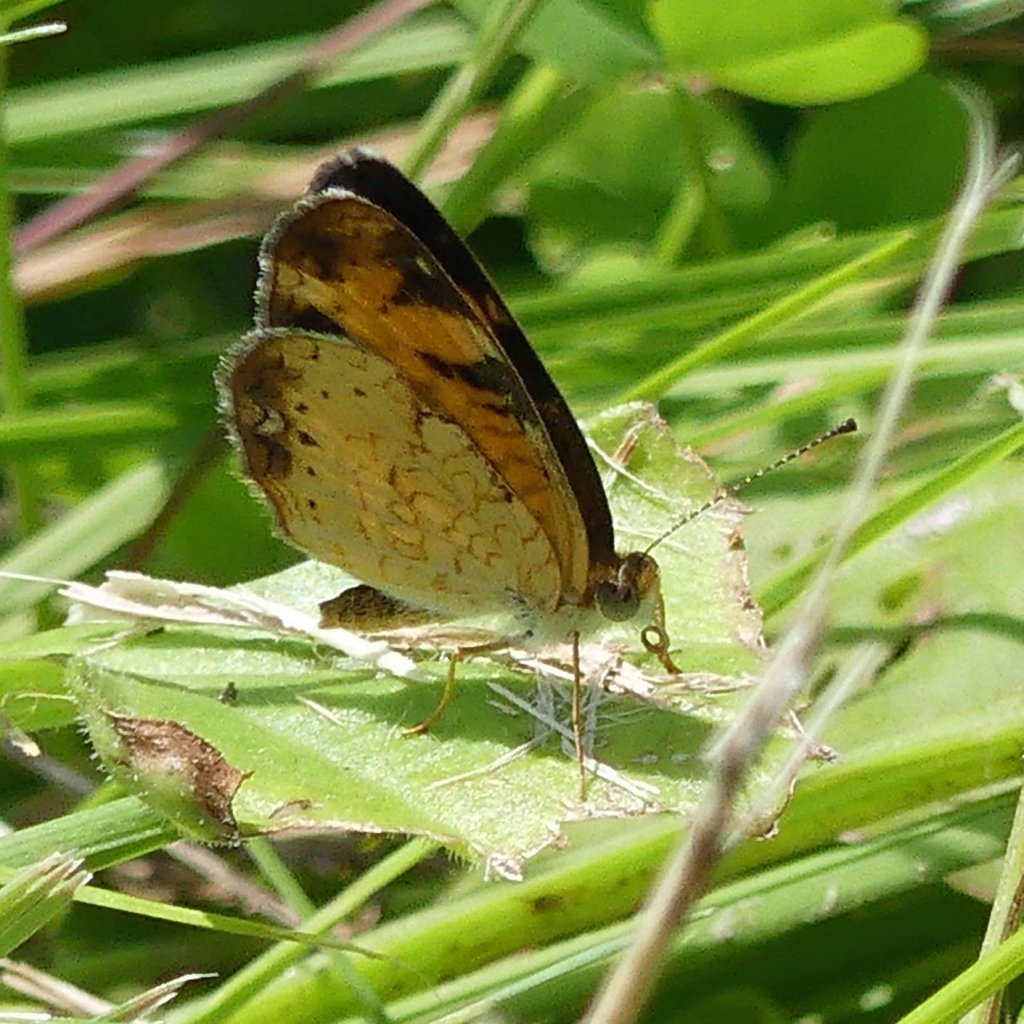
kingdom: Animalia
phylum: Arthropoda
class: Insecta
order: Lepidoptera
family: Nymphalidae
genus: Phyciodes
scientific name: Phyciodes tharos
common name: Pearl Crescent
